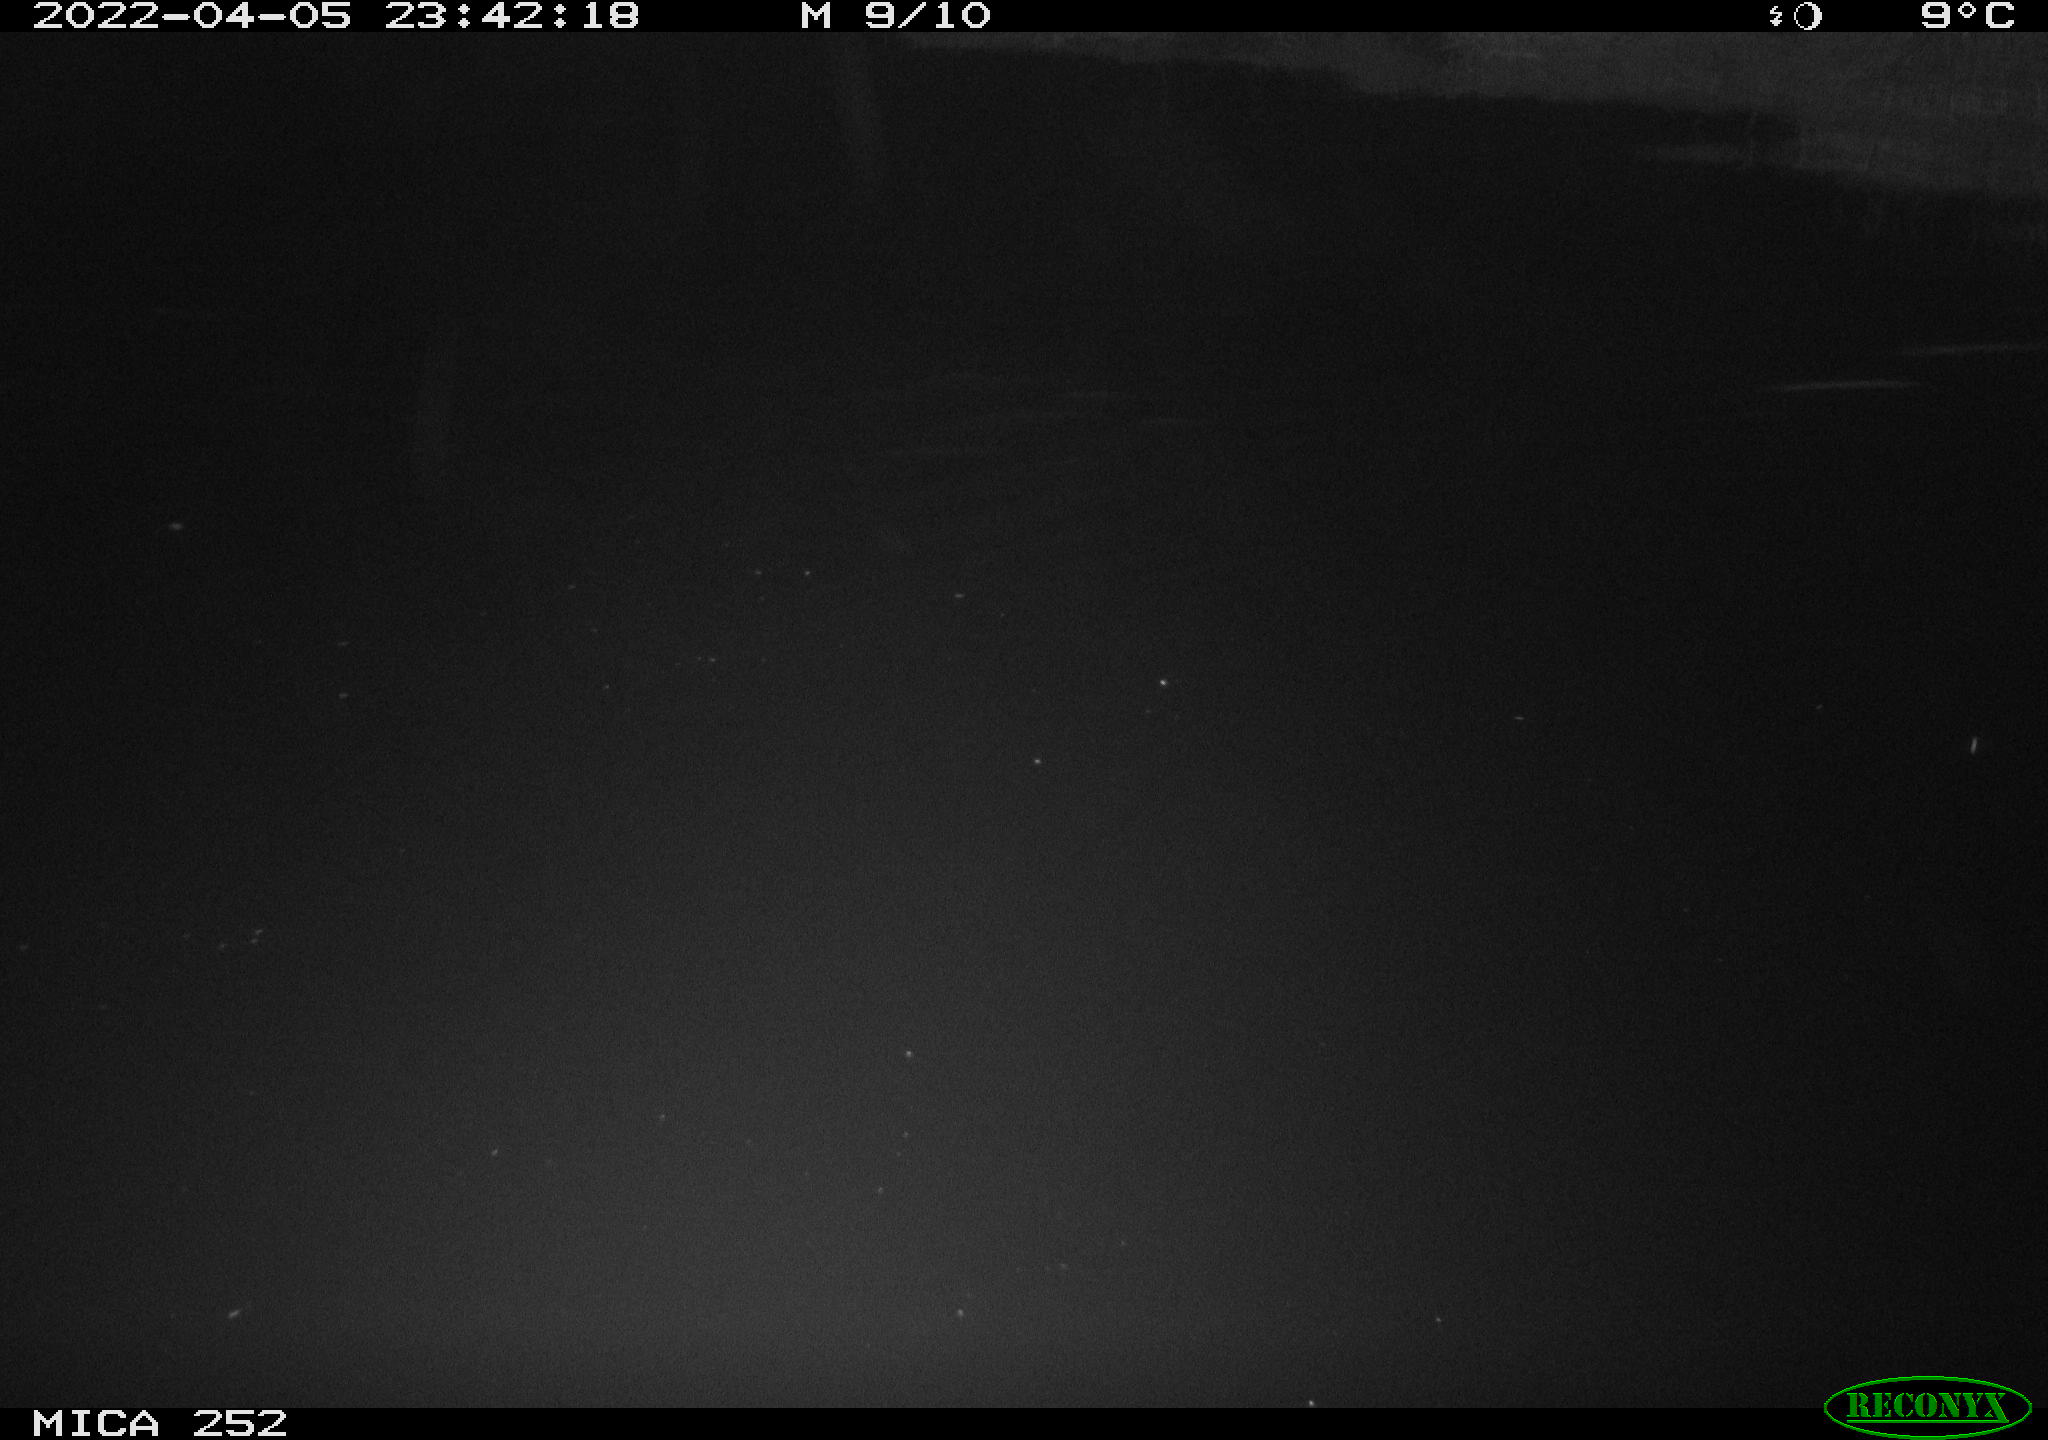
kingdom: Animalia
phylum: Chordata
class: Mammalia
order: Rodentia
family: Castoridae
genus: Castor
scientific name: Castor fiber
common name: Eurasian beaver
